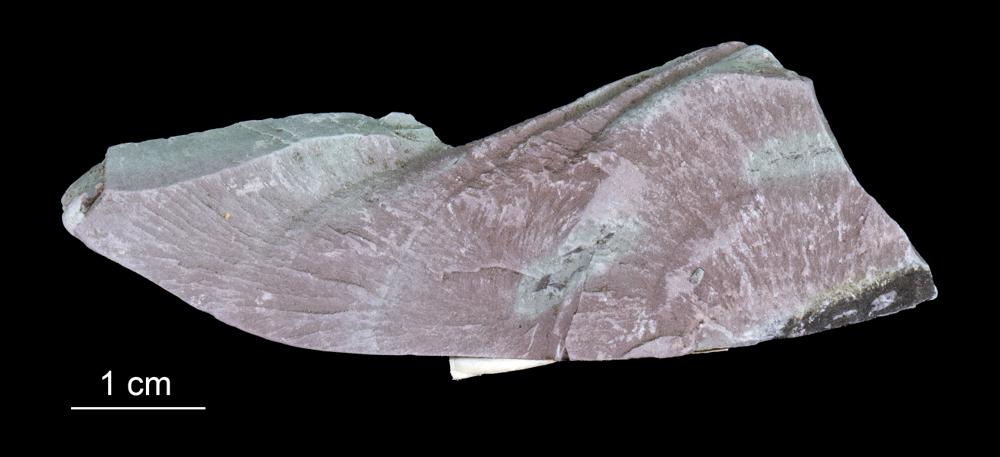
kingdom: Chromista
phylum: Foraminifera
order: Astrorhizida
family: Hyperamminidae
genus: Platysolenites
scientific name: Platysolenites antiquissimus
